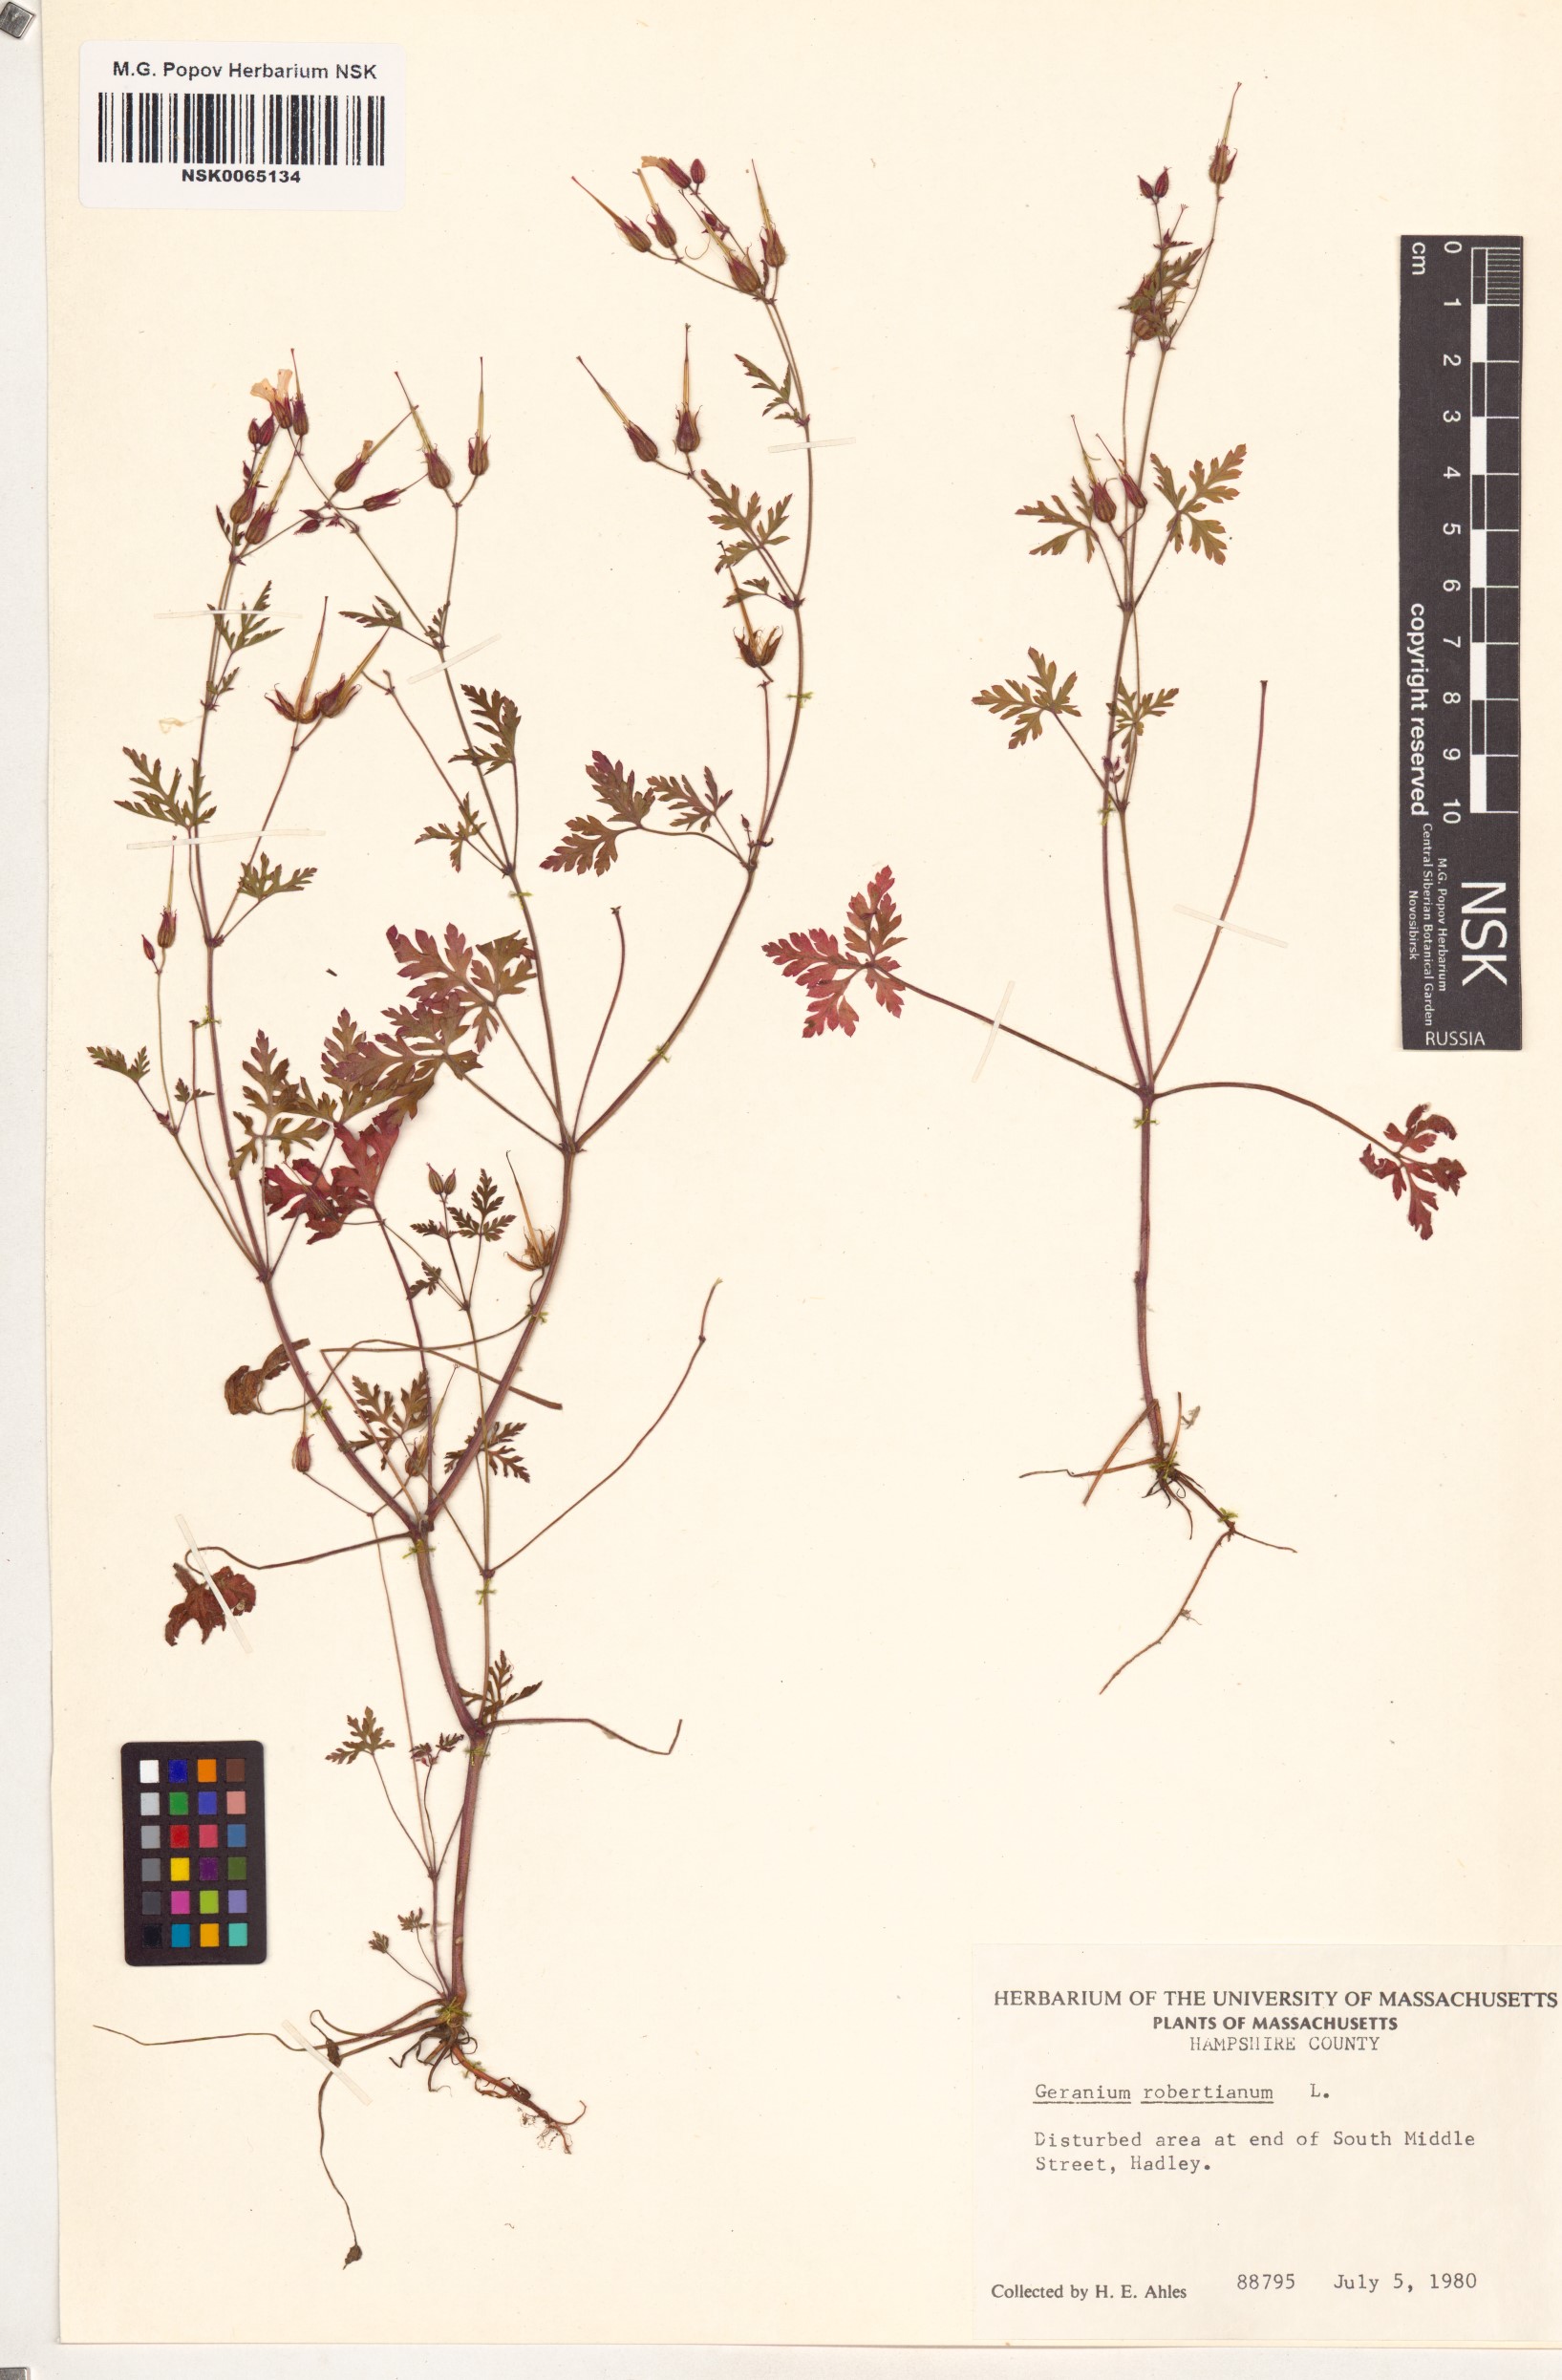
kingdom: Plantae
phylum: Tracheophyta
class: Magnoliopsida
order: Geraniales
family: Geraniaceae
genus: Geranium
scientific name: Geranium robertianum
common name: Herb-robert
